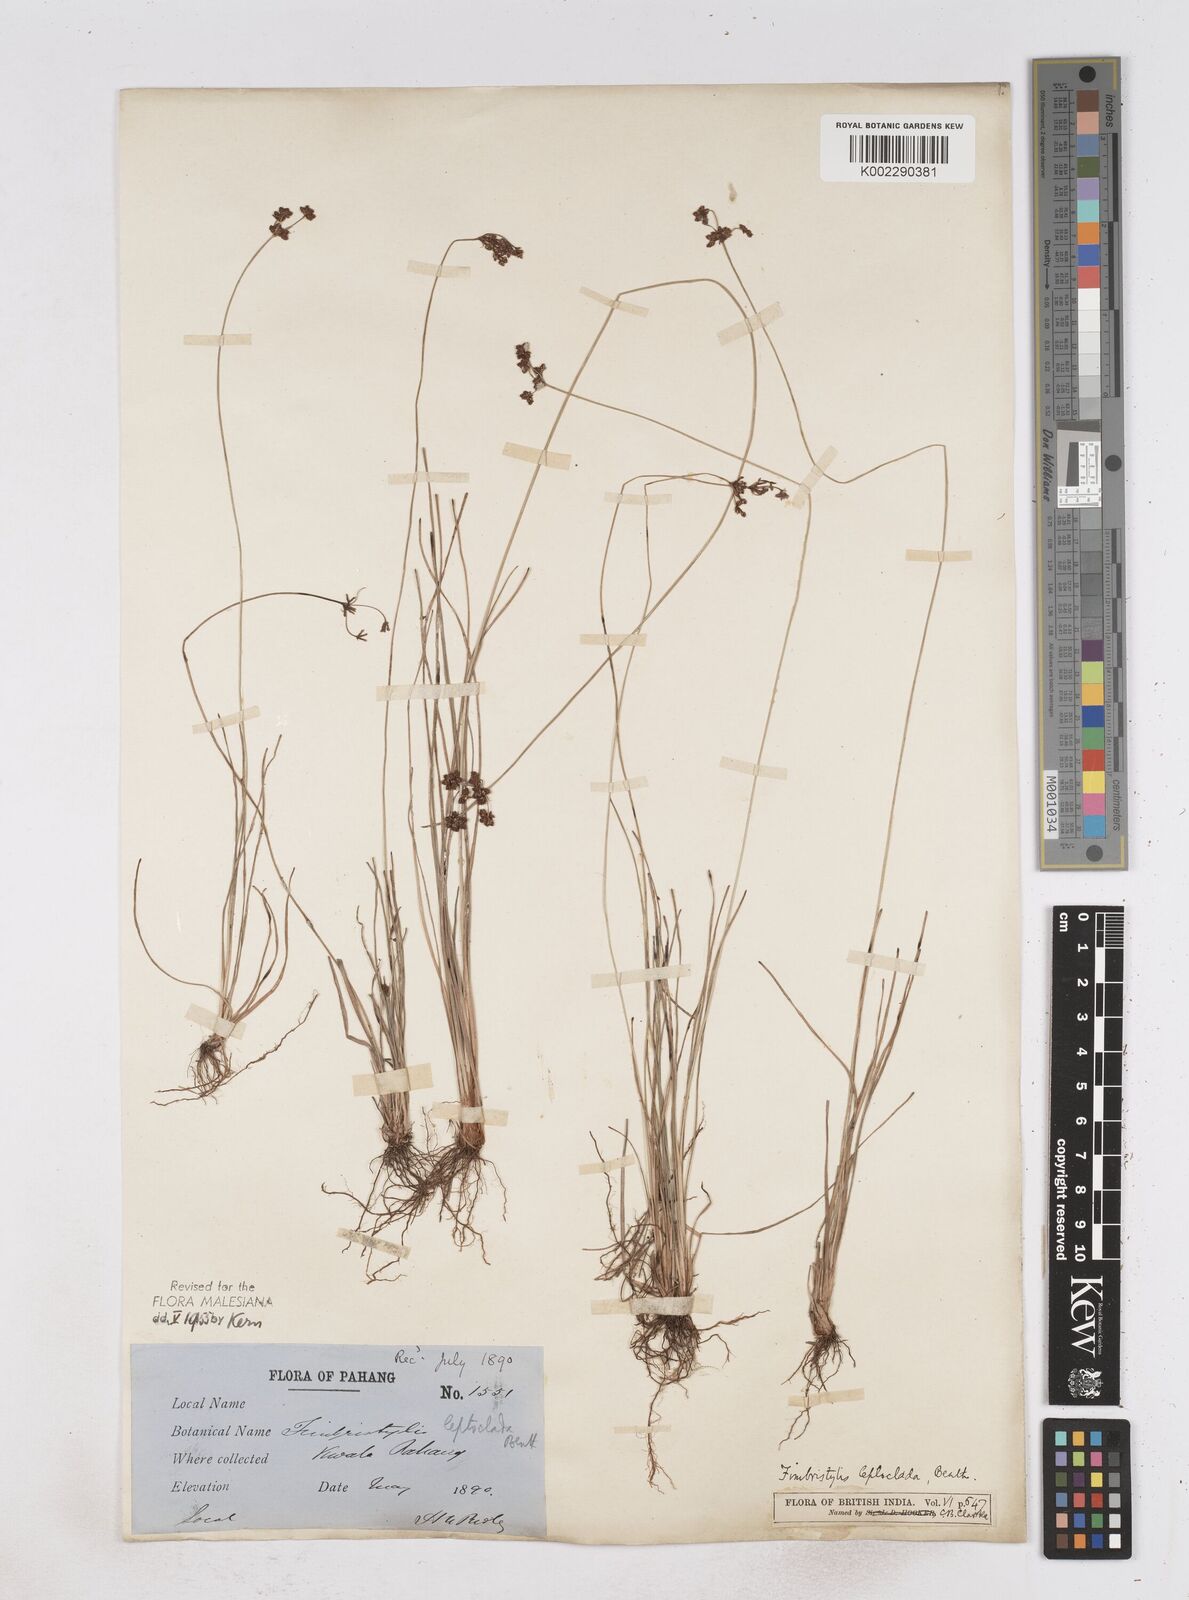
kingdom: Plantae
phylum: Tracheophyta
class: Liliopsida
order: Poales
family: Cyperaceae
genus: Fimbristylis
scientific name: Fimbristylis leptoclada
